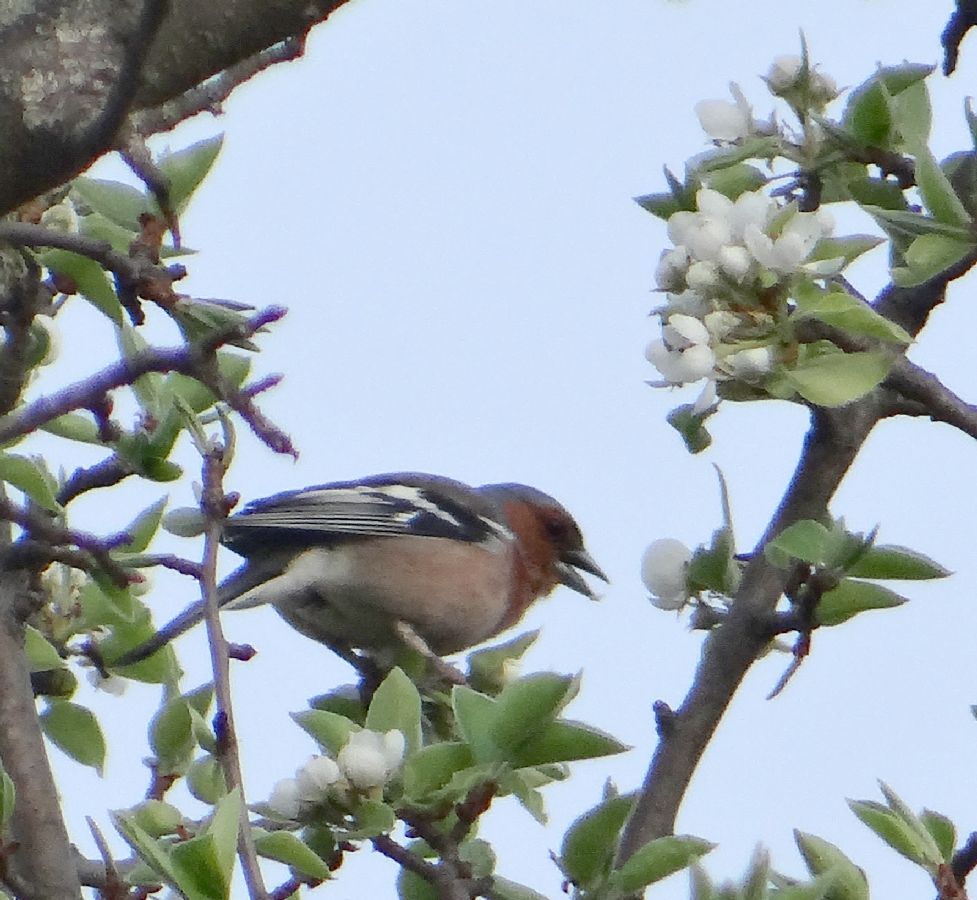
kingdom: Animalia
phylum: Chordata
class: Aves
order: Passeriformes
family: Fringillidae
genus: Fringilla
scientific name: Fringilla coelebs
